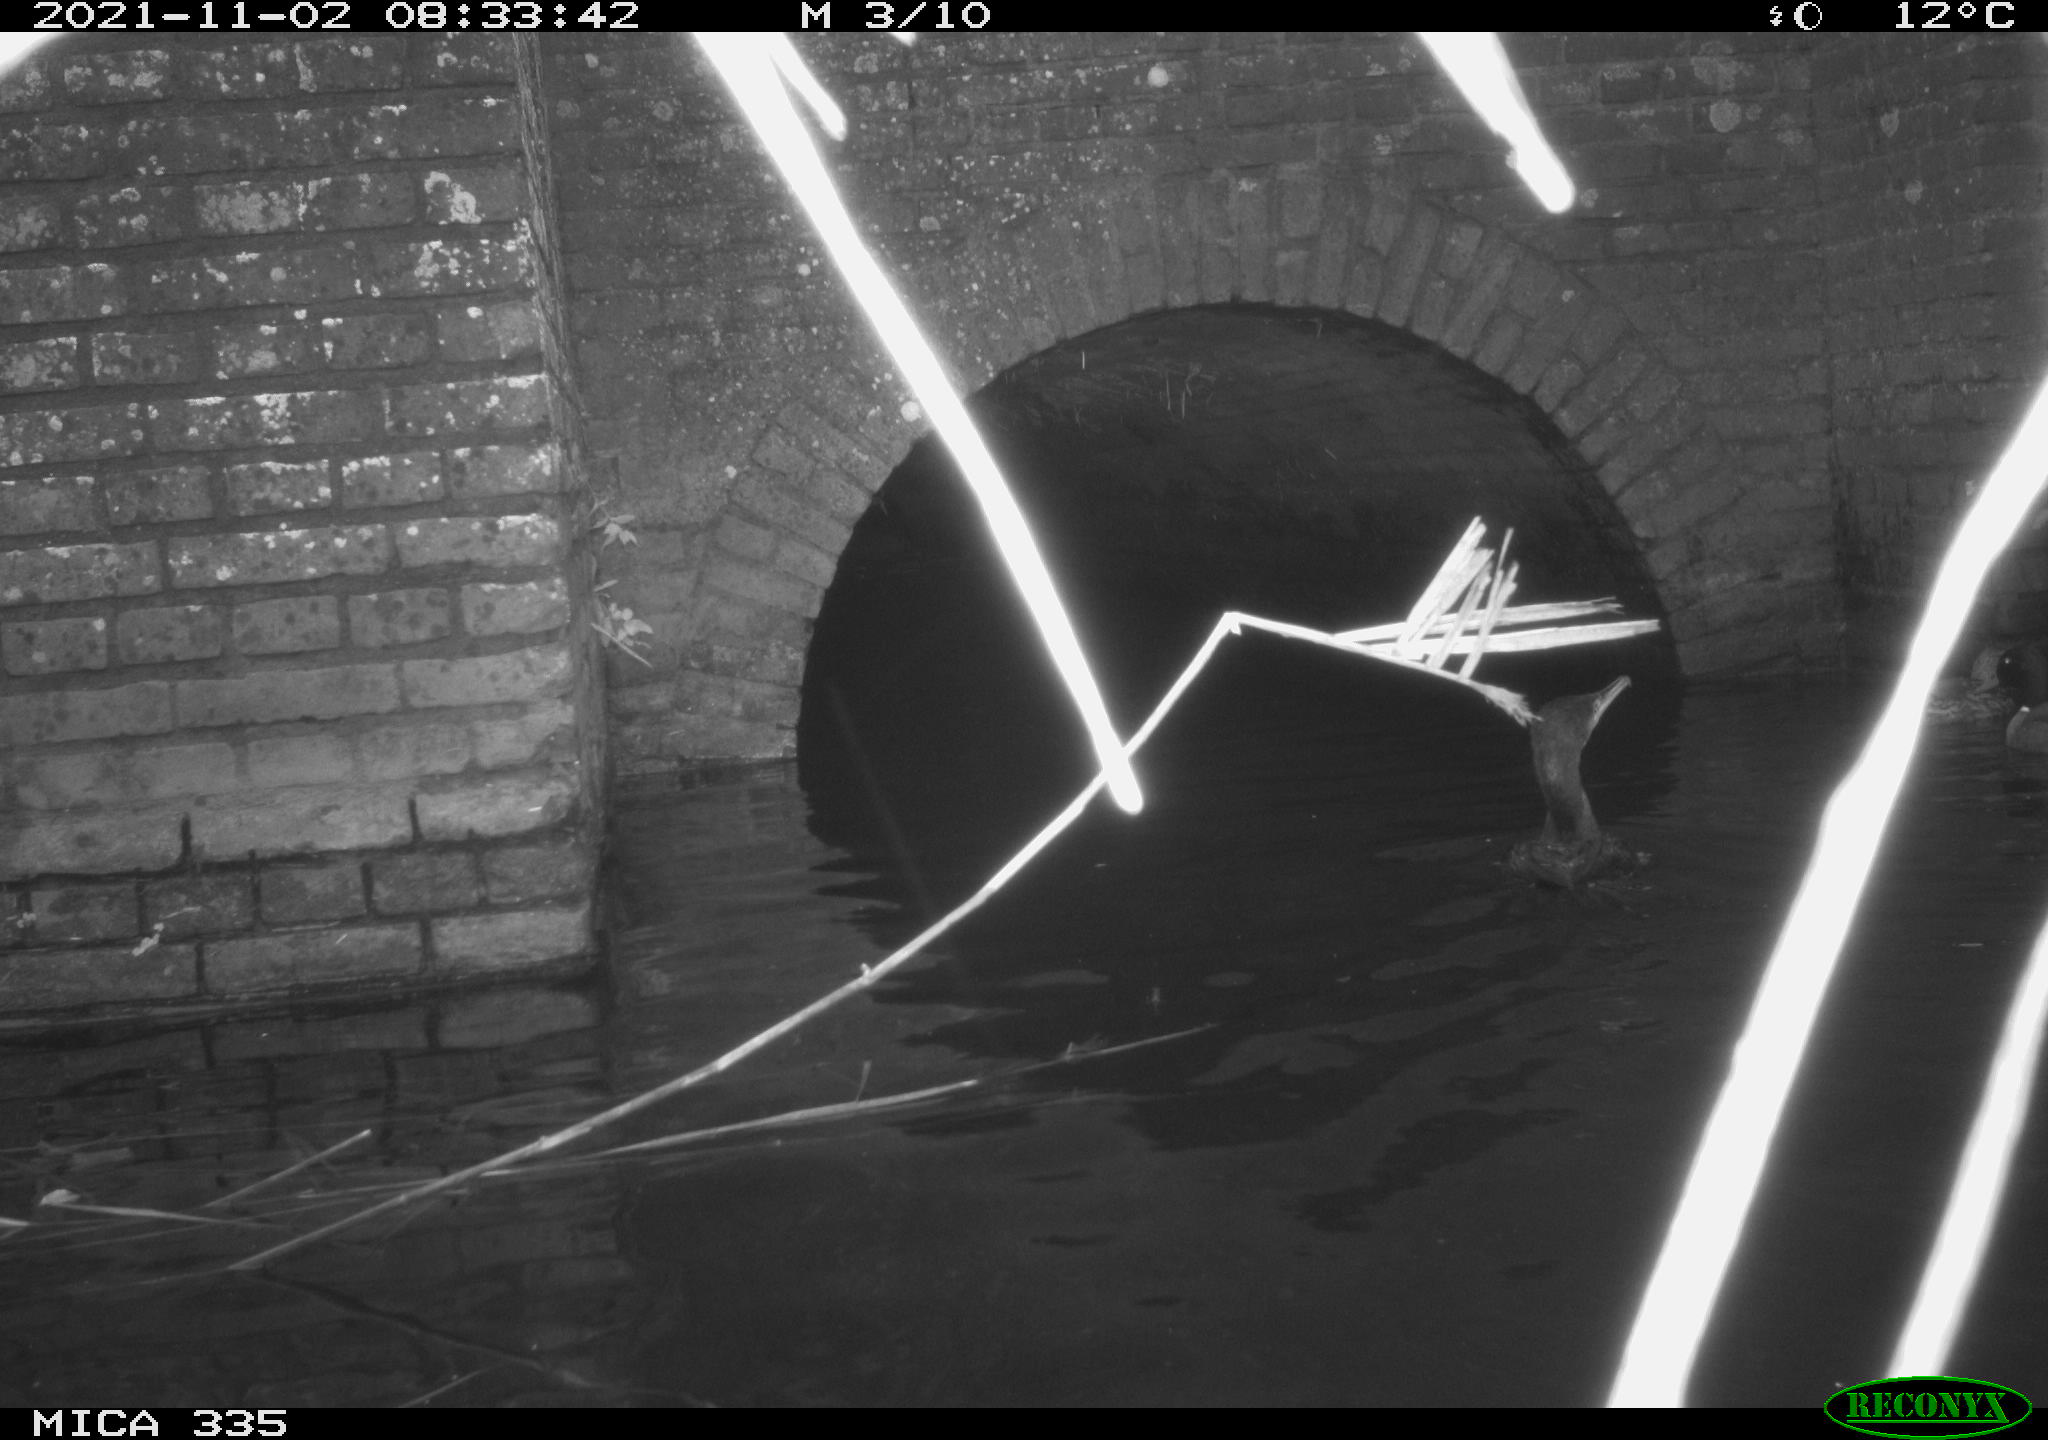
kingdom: Animalia
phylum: Chordata
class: Aves
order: Anseriformes
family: Anatidae
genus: Anas
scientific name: Anas platyrhynchos
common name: Mallard
